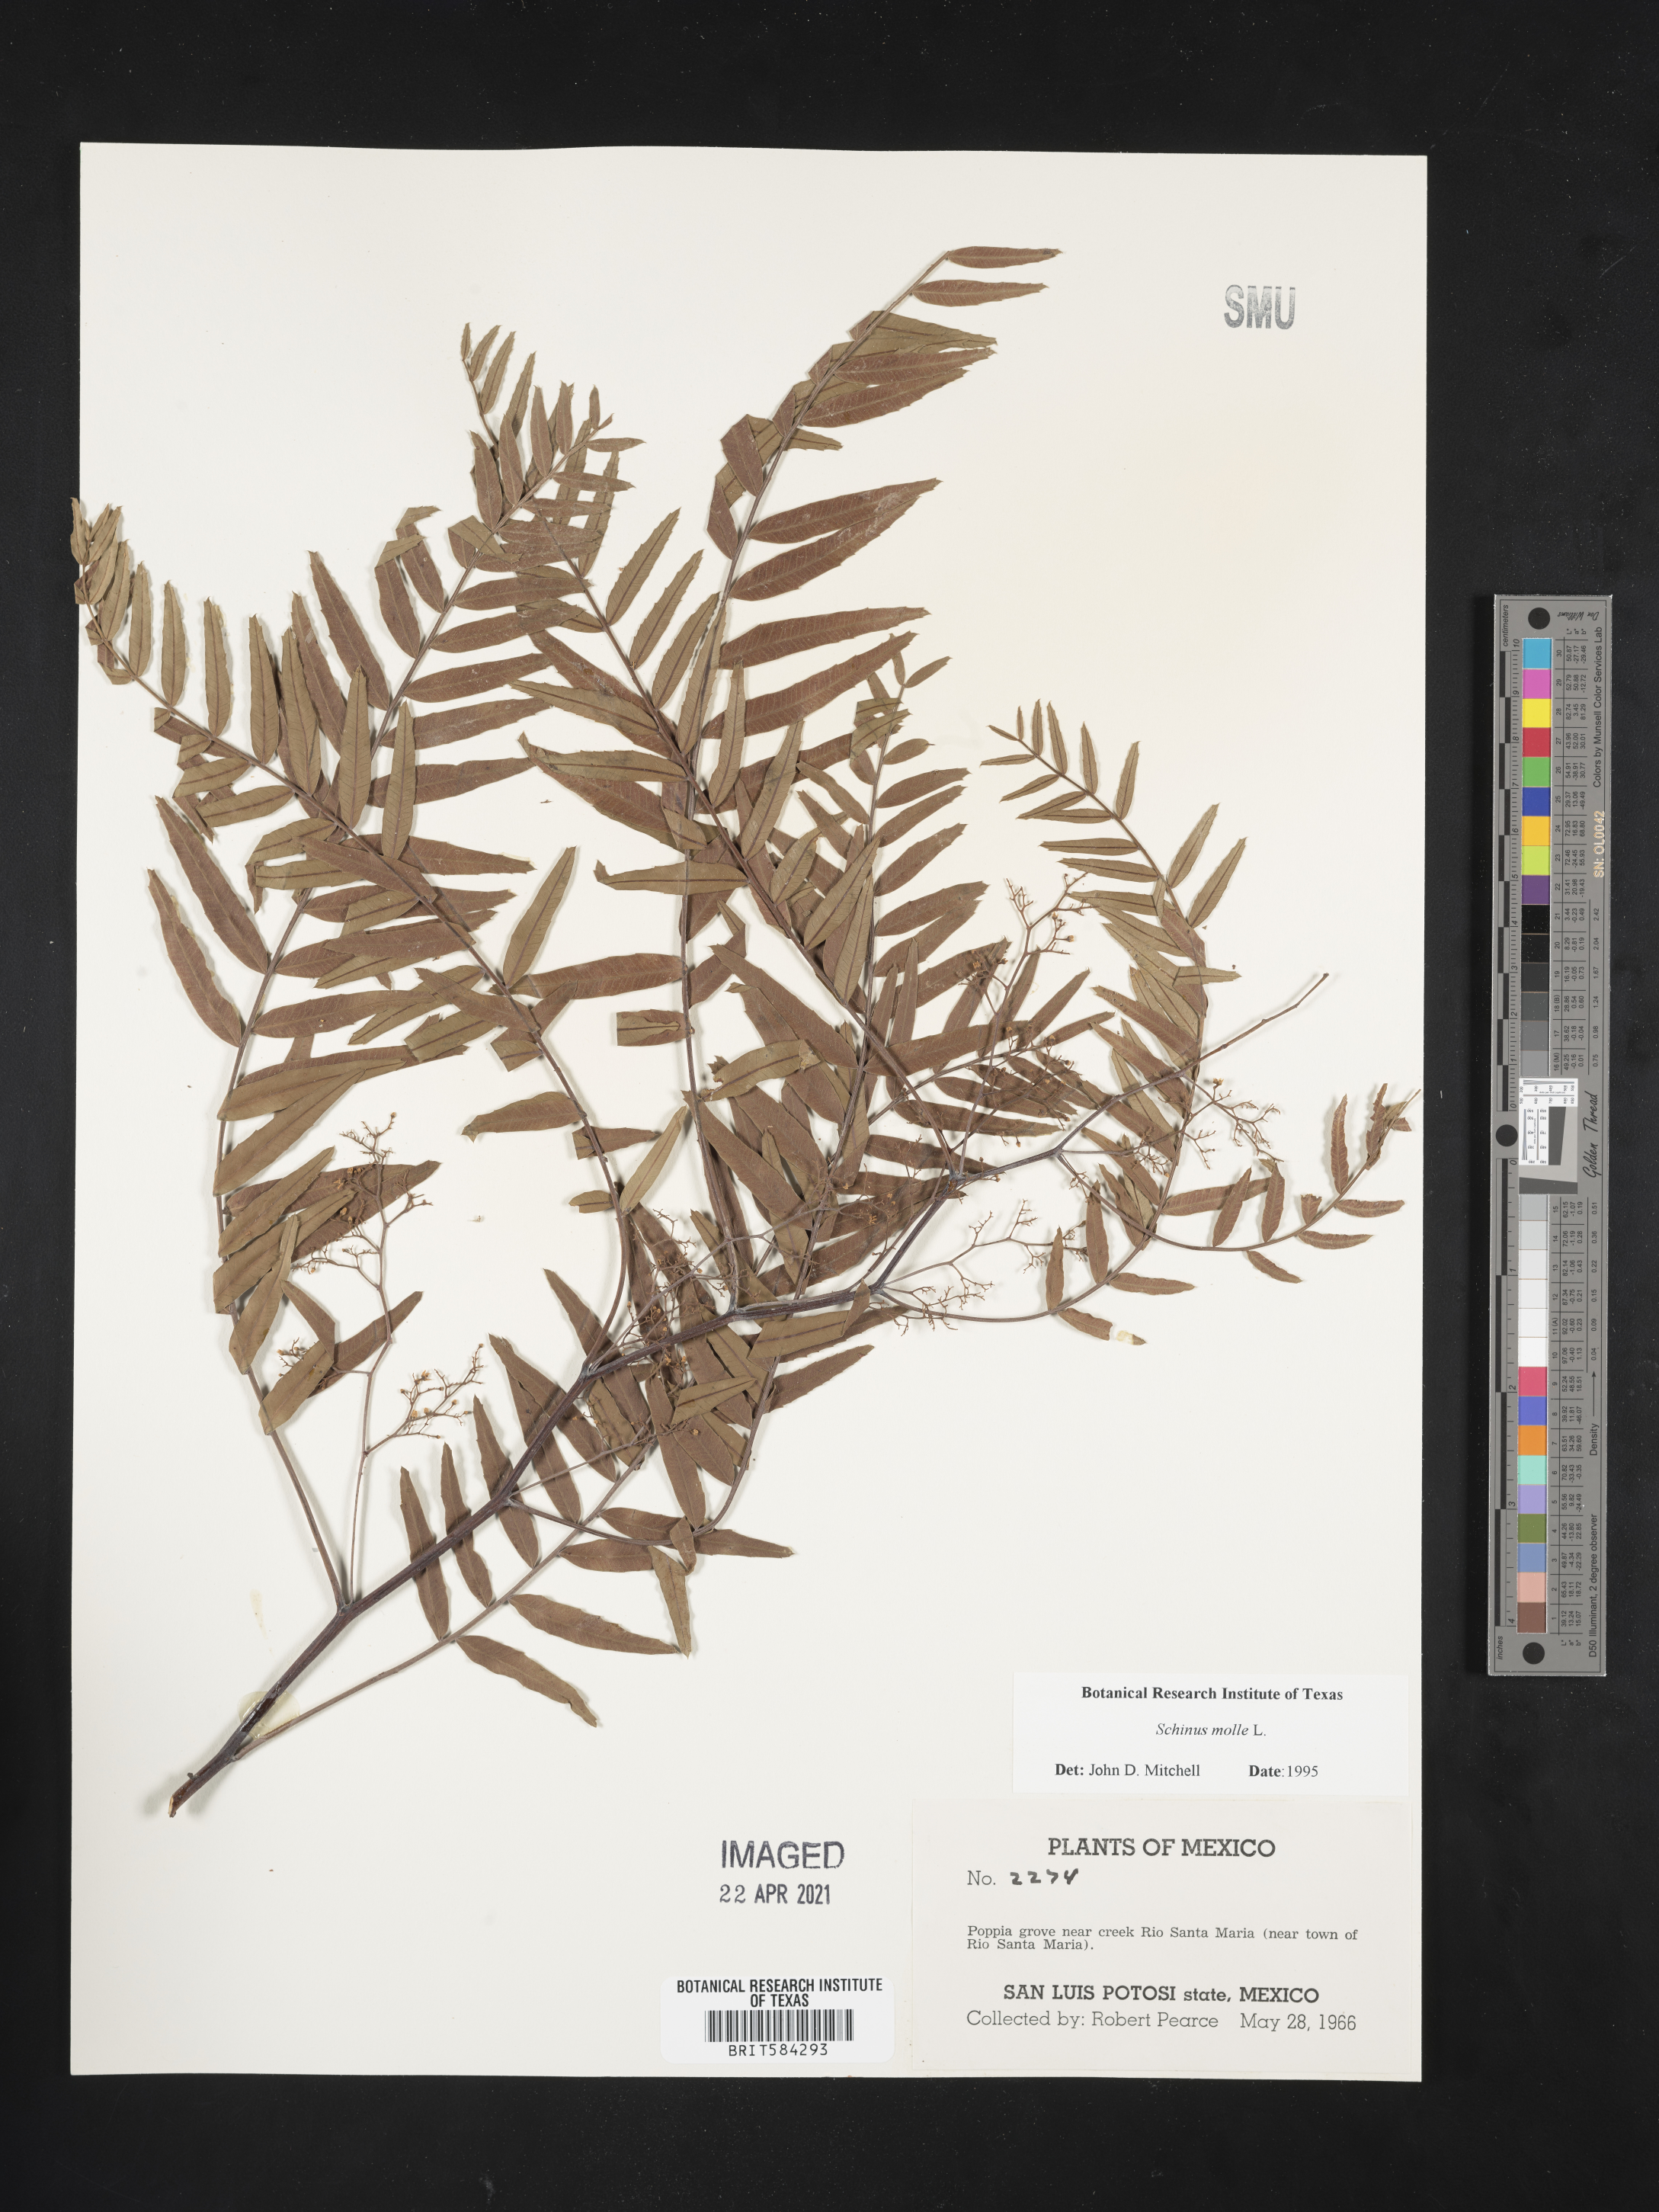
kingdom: Plantae
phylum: Tracheophyta
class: Magnoliopsida
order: Sapindales
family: Anacardiaceae
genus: Schinus
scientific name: Schinus molle
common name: Peruvian peppertree
